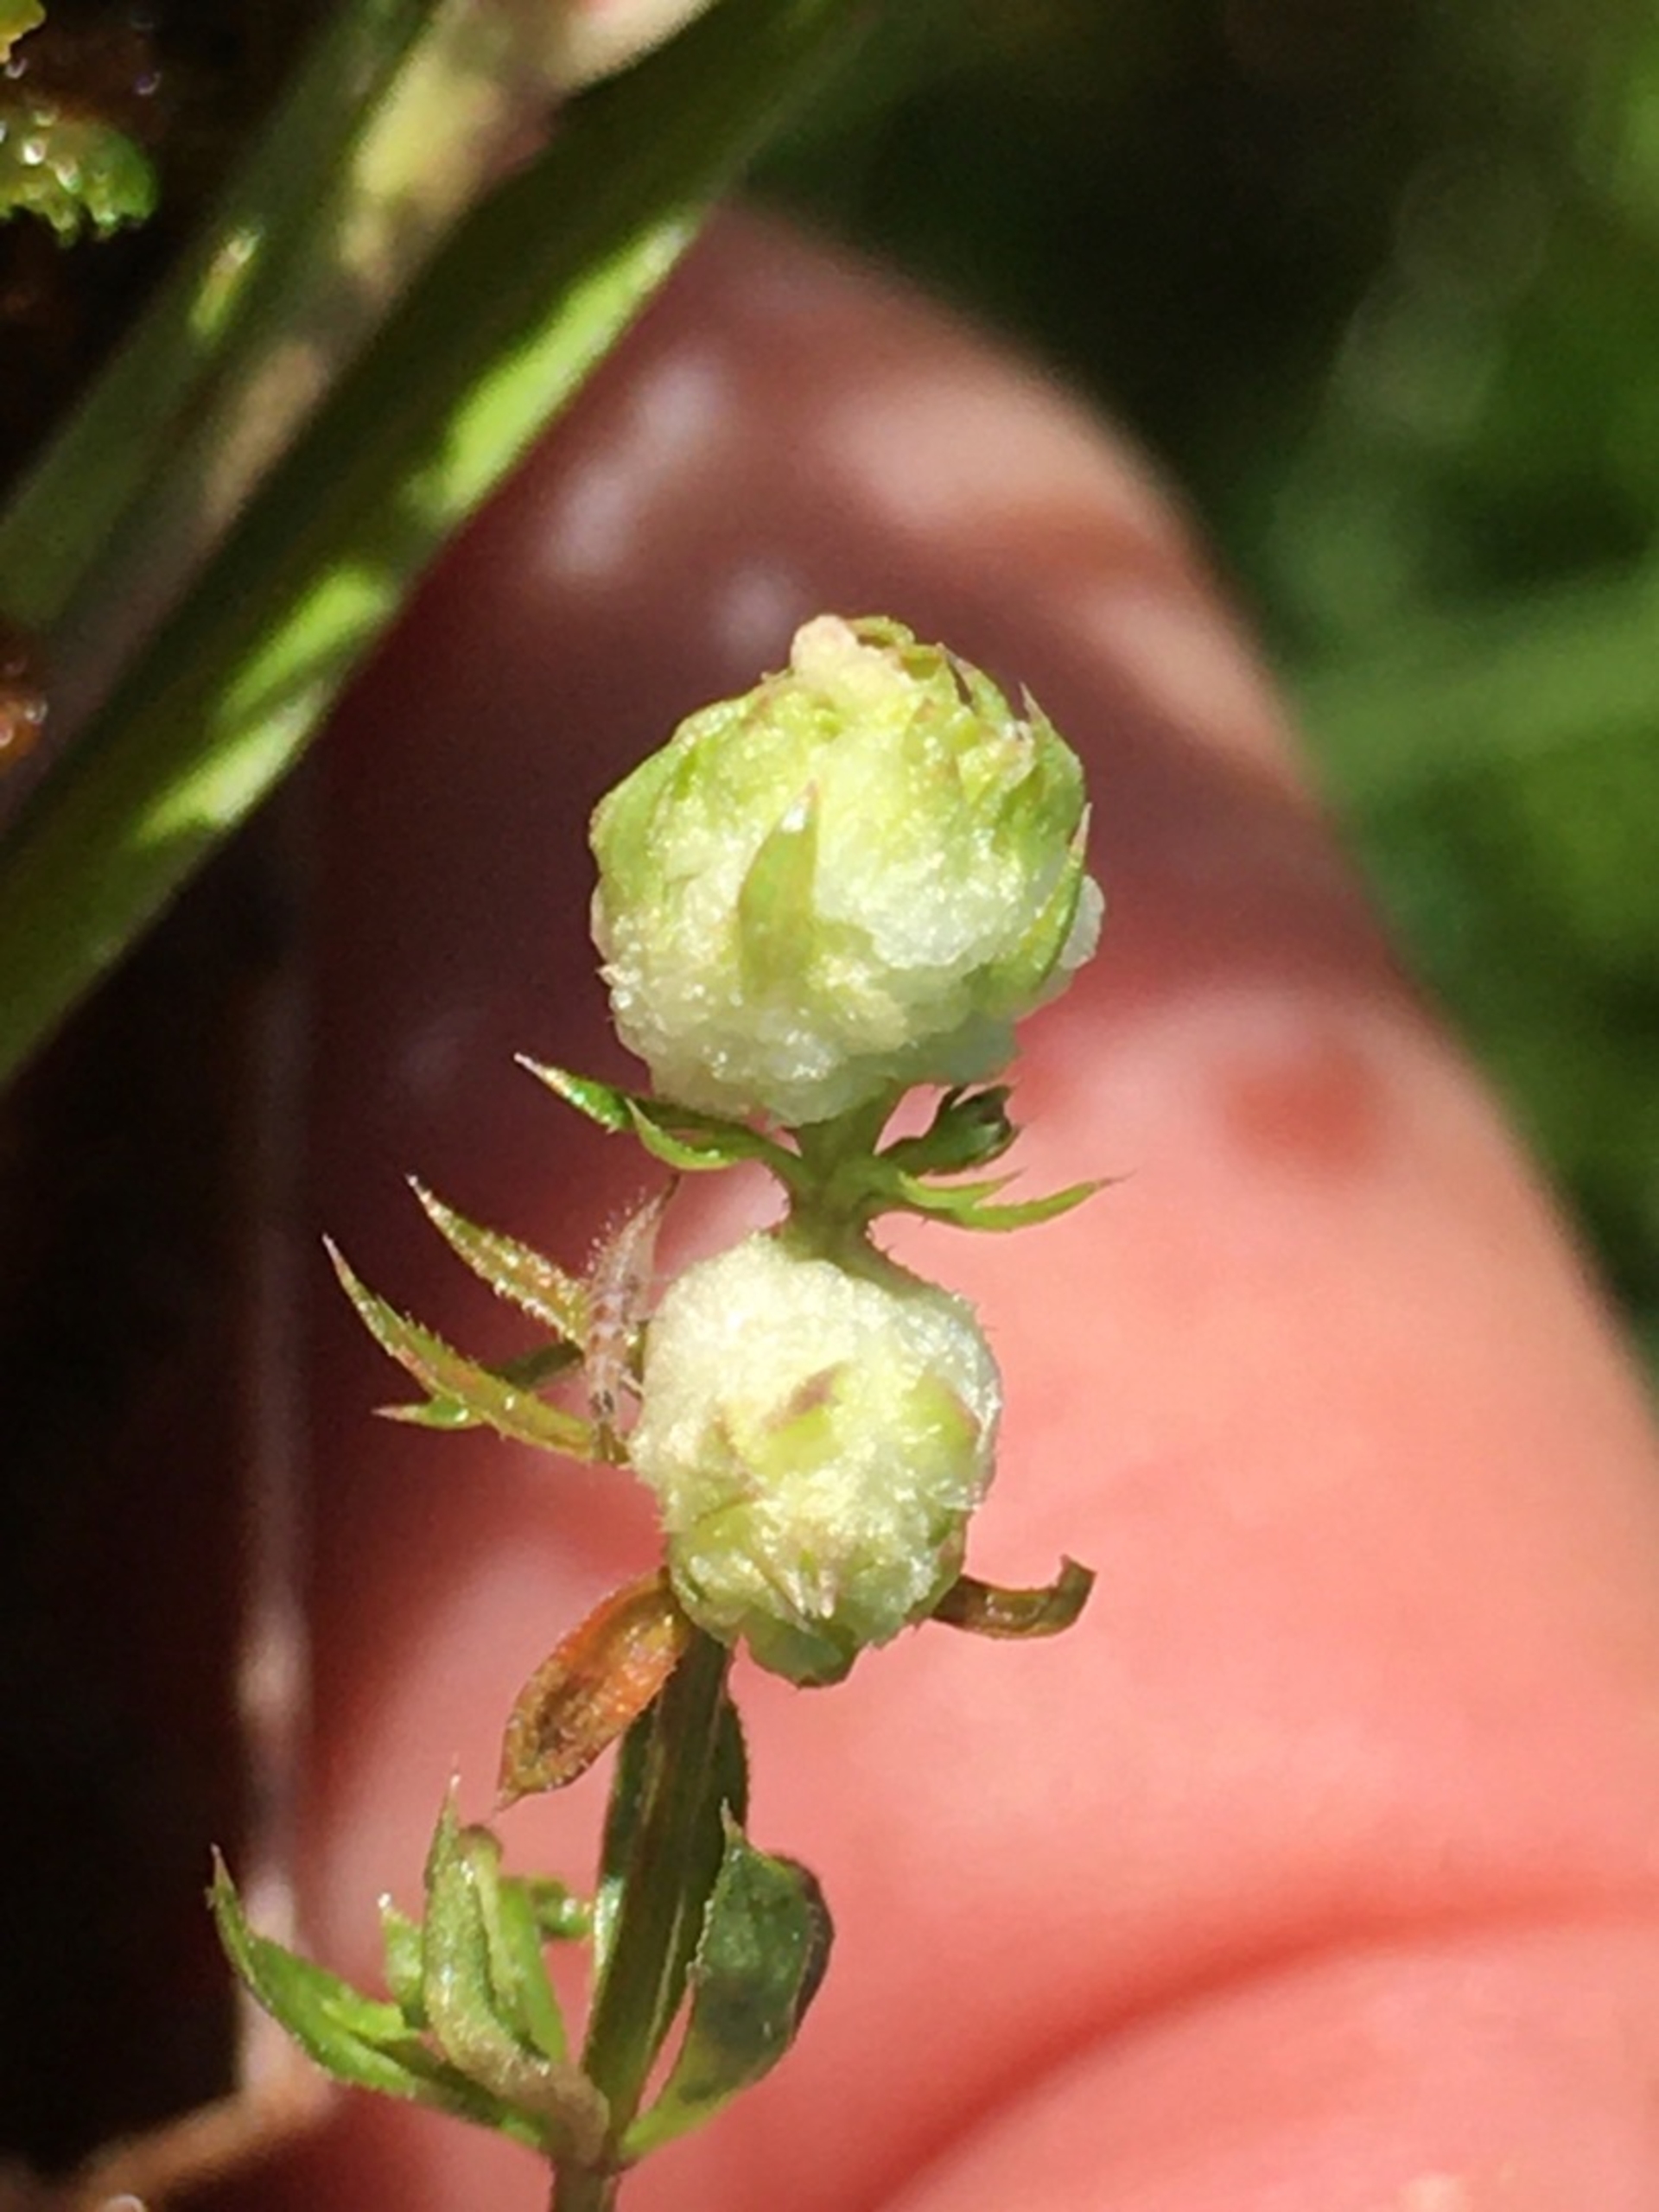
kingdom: Animalia
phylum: Arthropoda
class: Insecta
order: Diptera
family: Cecidomyiidae
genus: Dasineura
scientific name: Dasineura galiicola
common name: Sumpsnerregalmyg
